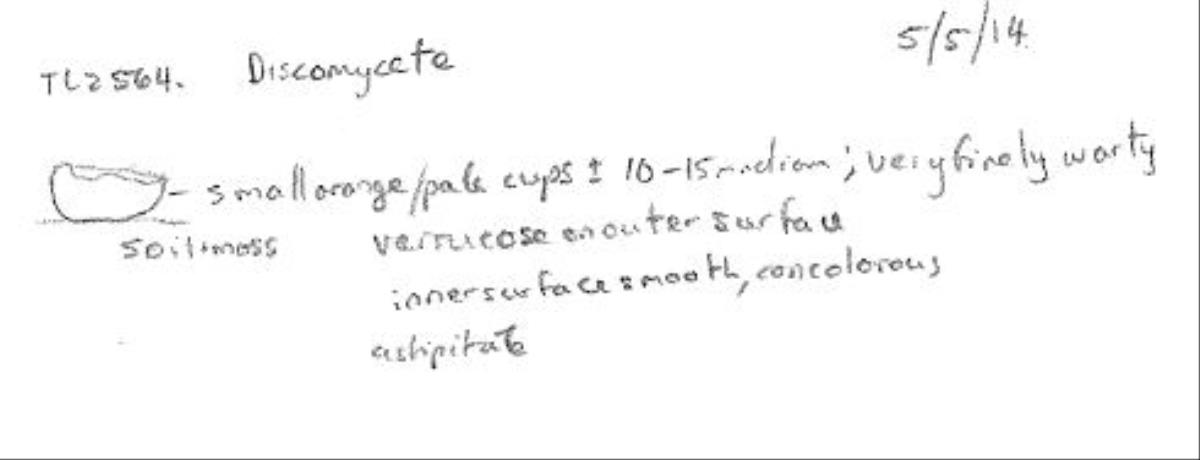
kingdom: Fungi
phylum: Ascomycota
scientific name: Ascomycota
